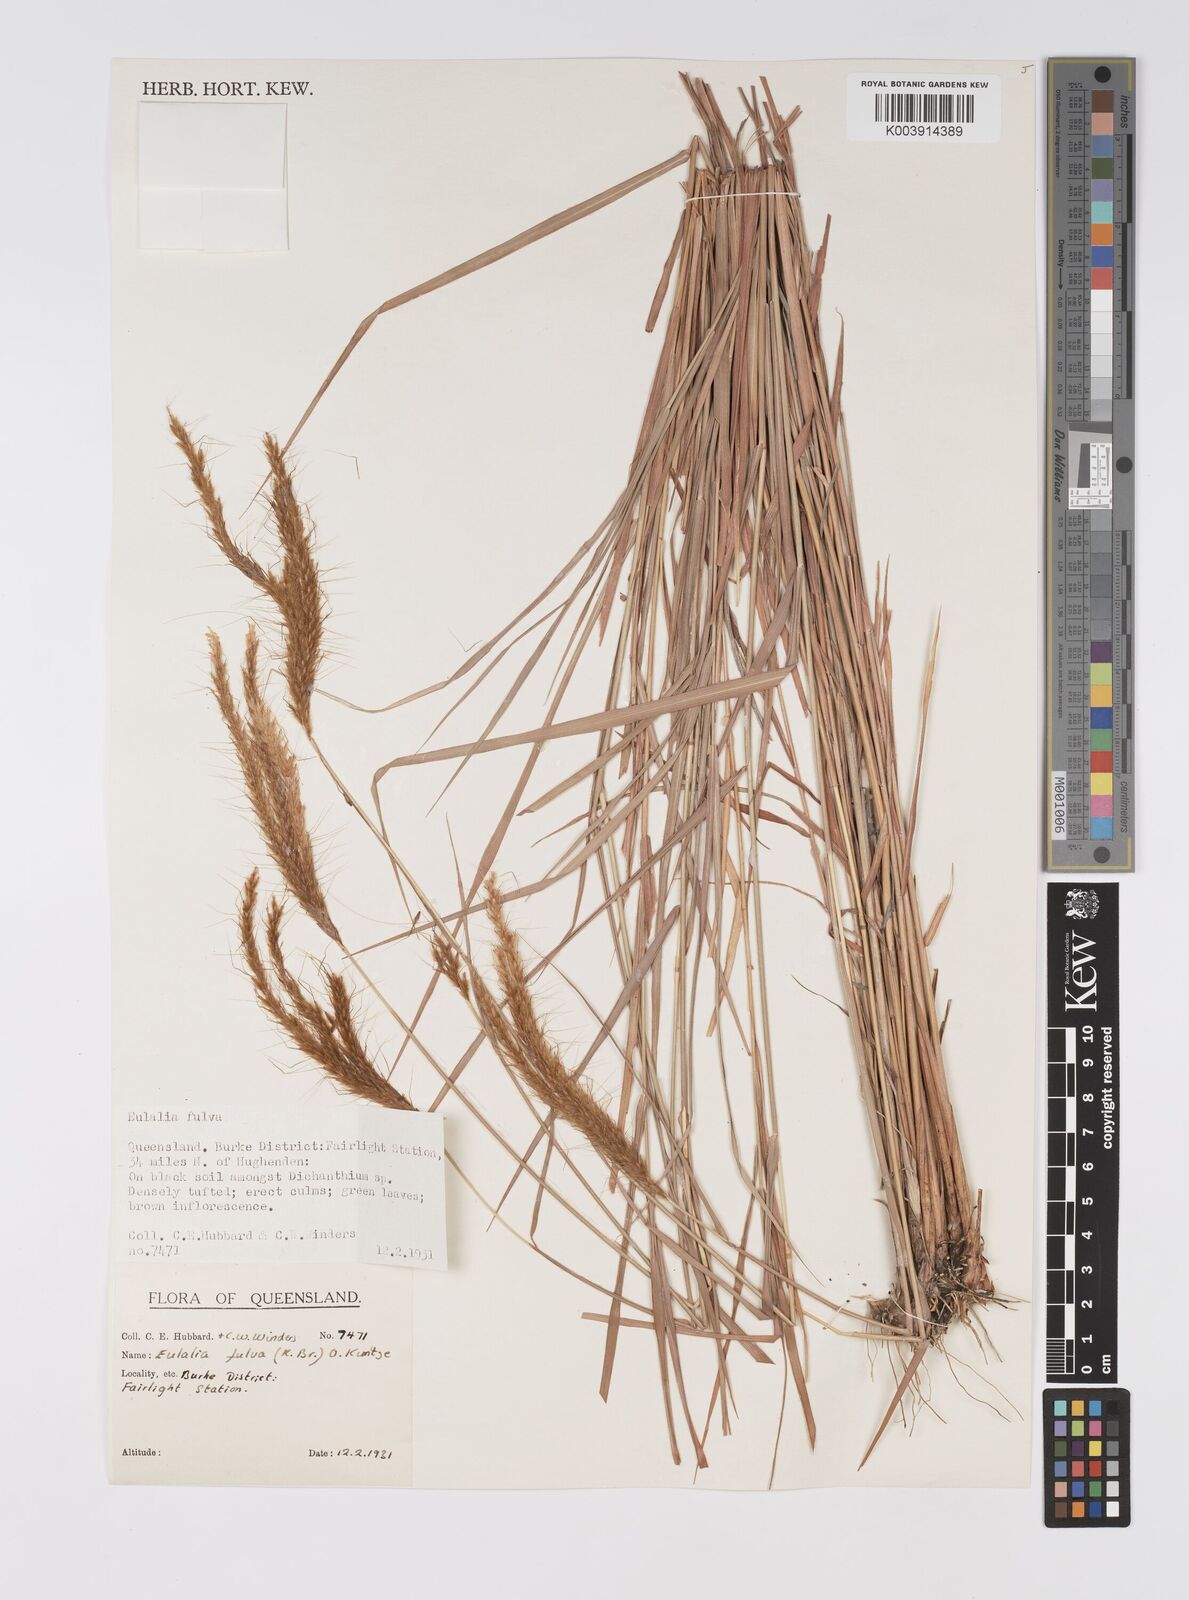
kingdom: Plantae
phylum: Tracheophyta
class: Liliopsida
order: Poales
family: Poaceae
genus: Eulalia
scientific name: Eulalia aurea
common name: Silky browntop
